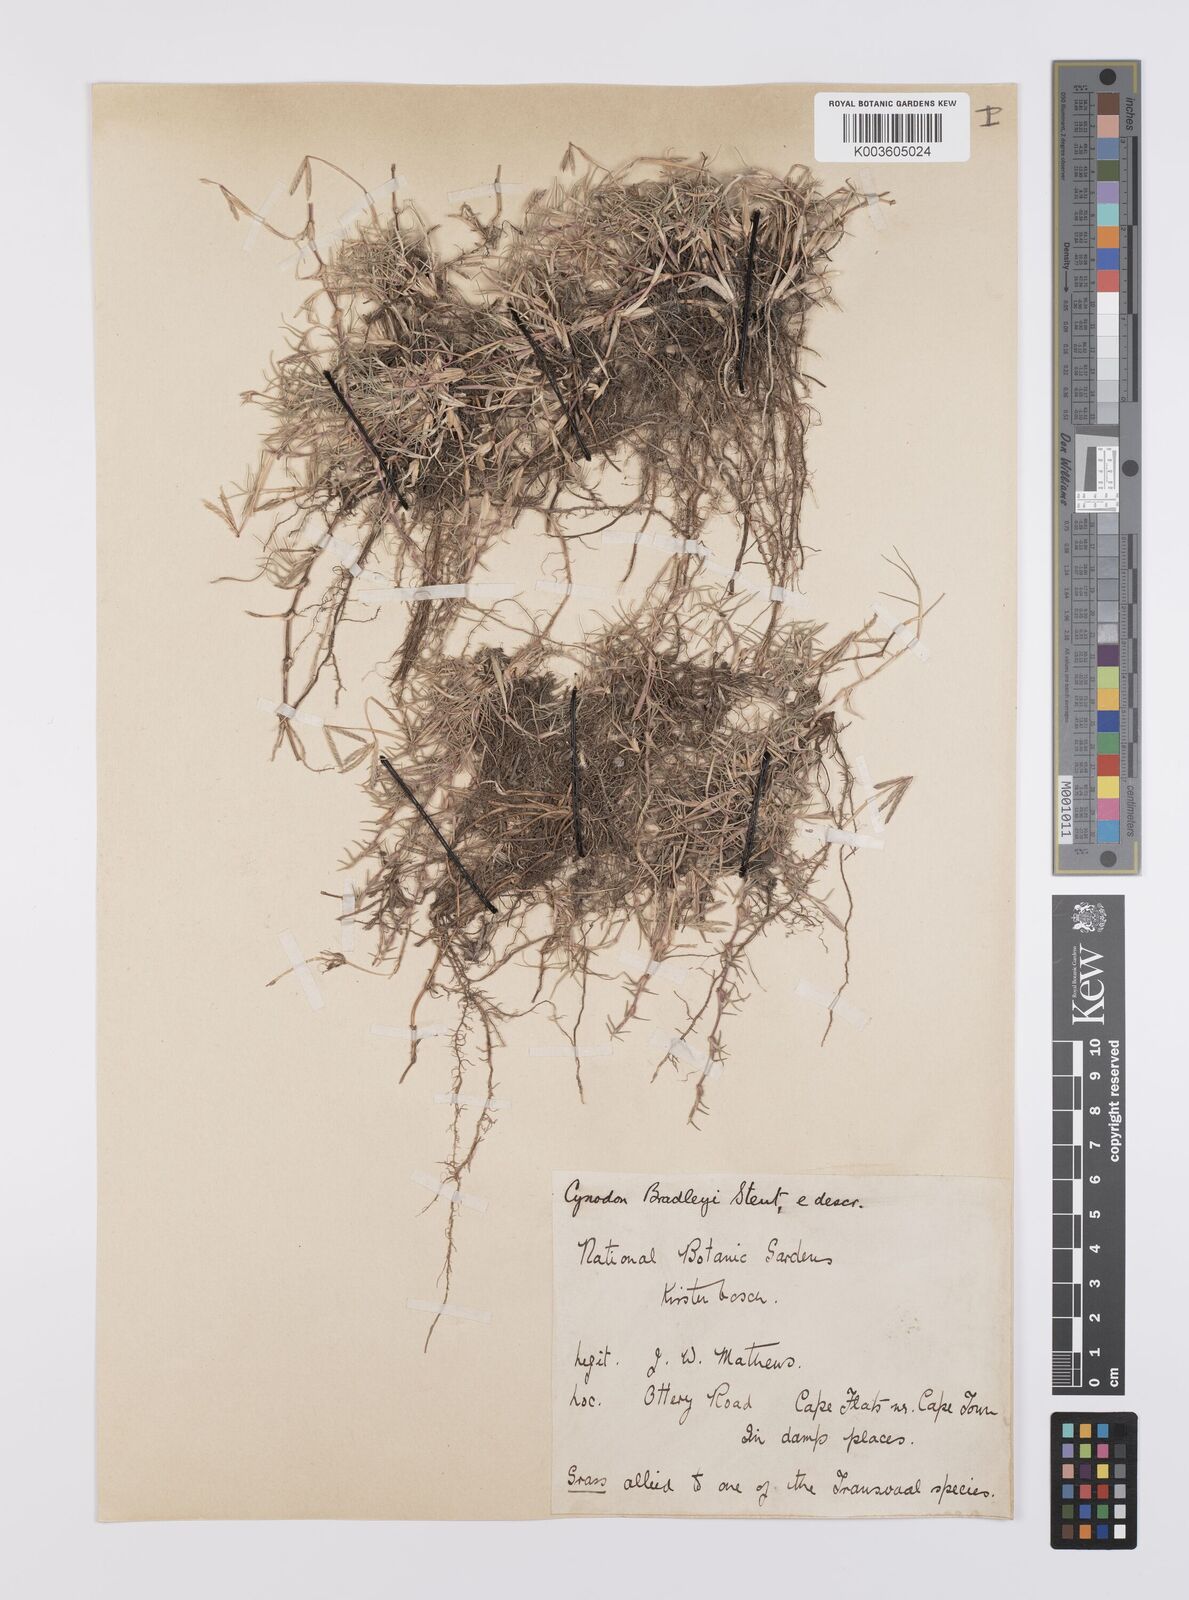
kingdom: Plantae
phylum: Tracheophyta
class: Liliopsida
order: Poales
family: Poaceae
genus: Cynodon
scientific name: Cynodon transvaalensis
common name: African bermuda grass
